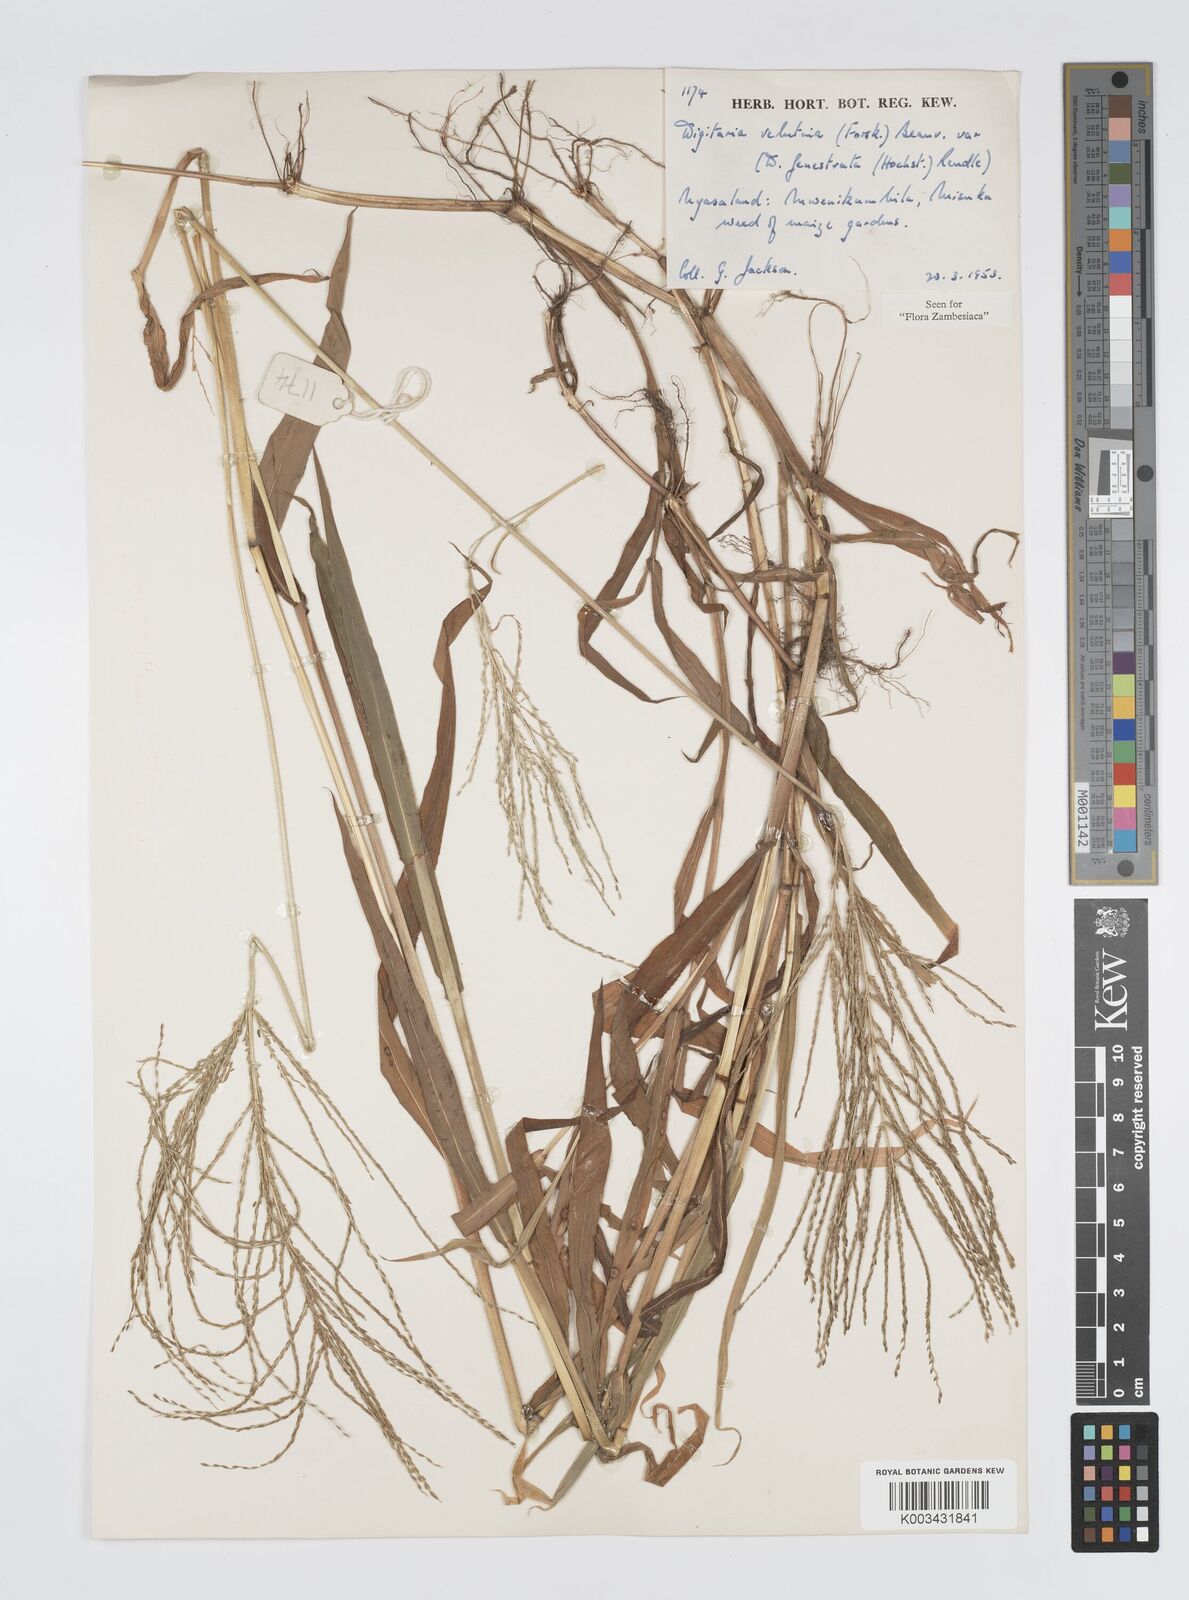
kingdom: Plantae
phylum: Tracheophyta
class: Liliopsida
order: Poales
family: Poaceae
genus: Digitaria
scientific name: Digitaria velutina
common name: Long-plume finger grass
